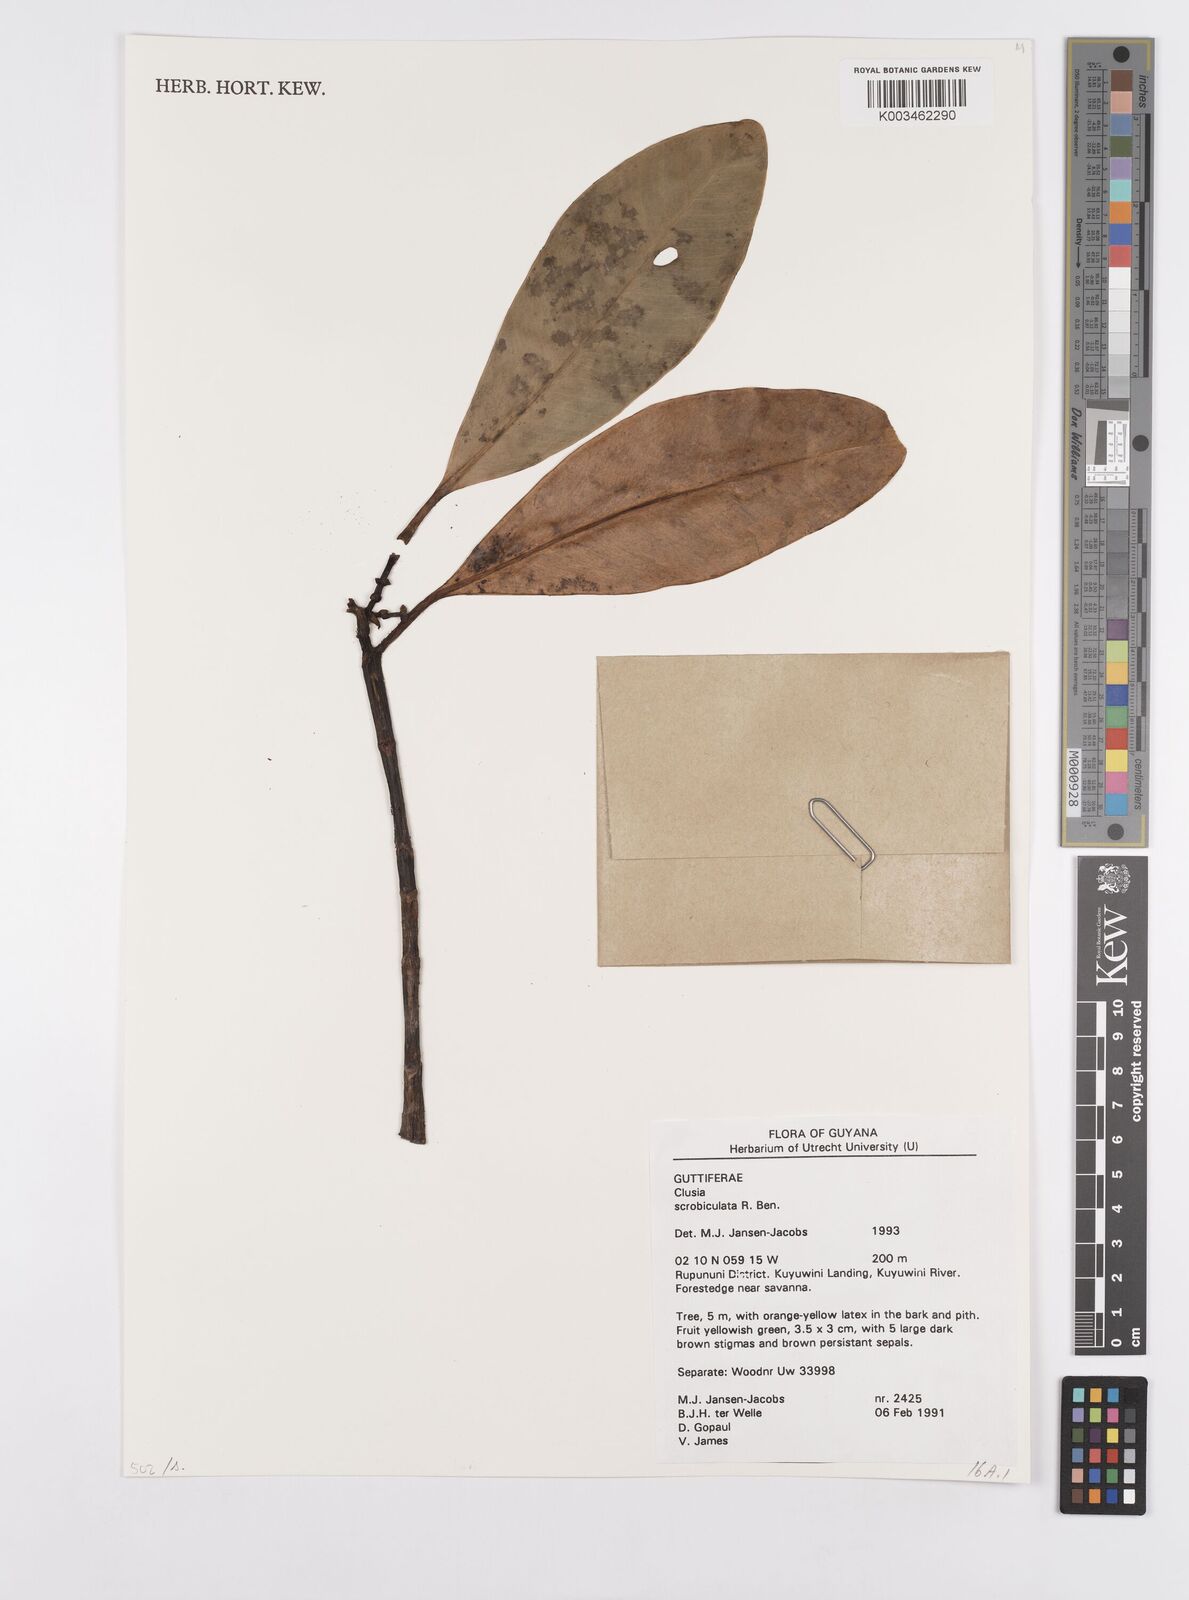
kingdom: Plantae
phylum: Tracheophyta
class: Magnoliopsida
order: Malpighiales
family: Clusiaceae
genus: Clusia
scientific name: Clusia scrobiculata
